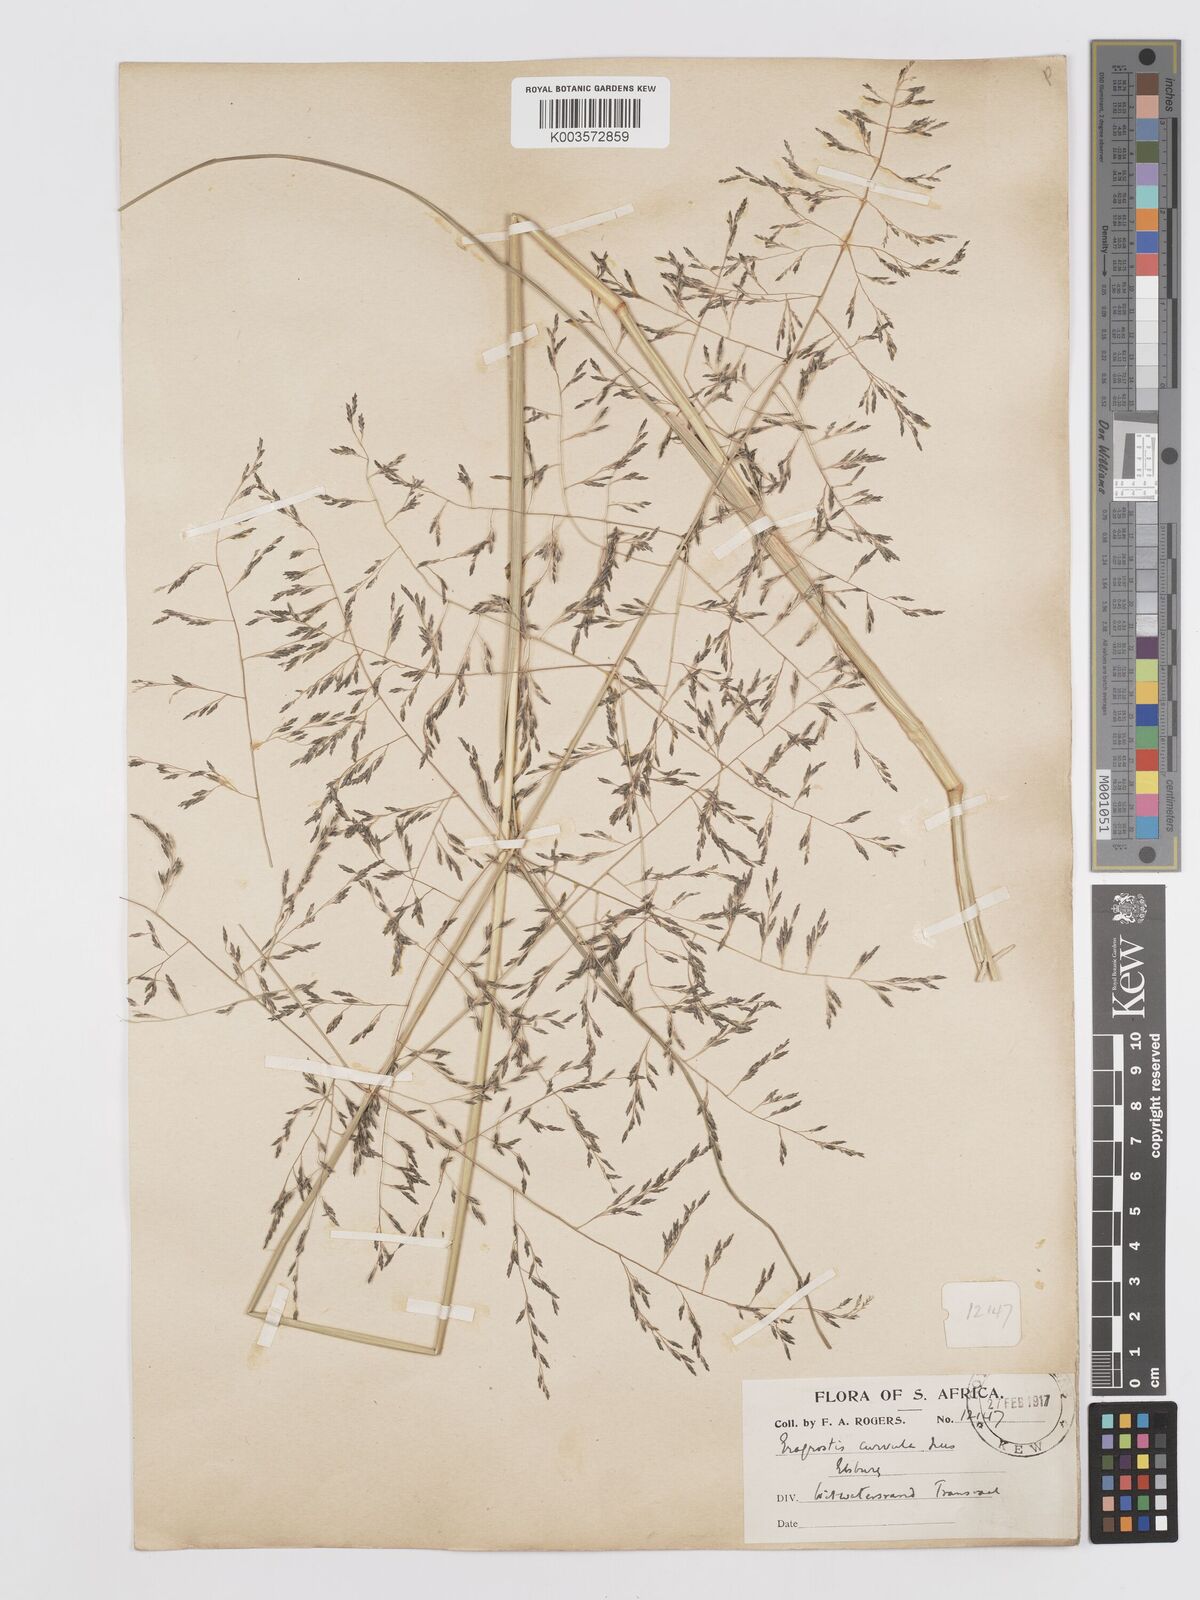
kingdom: Plantae
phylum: Tracheophyta
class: Liliopsida
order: Poales
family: Poaceae
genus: Eragrostis
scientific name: Eragrostis curvula
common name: African love-grass
